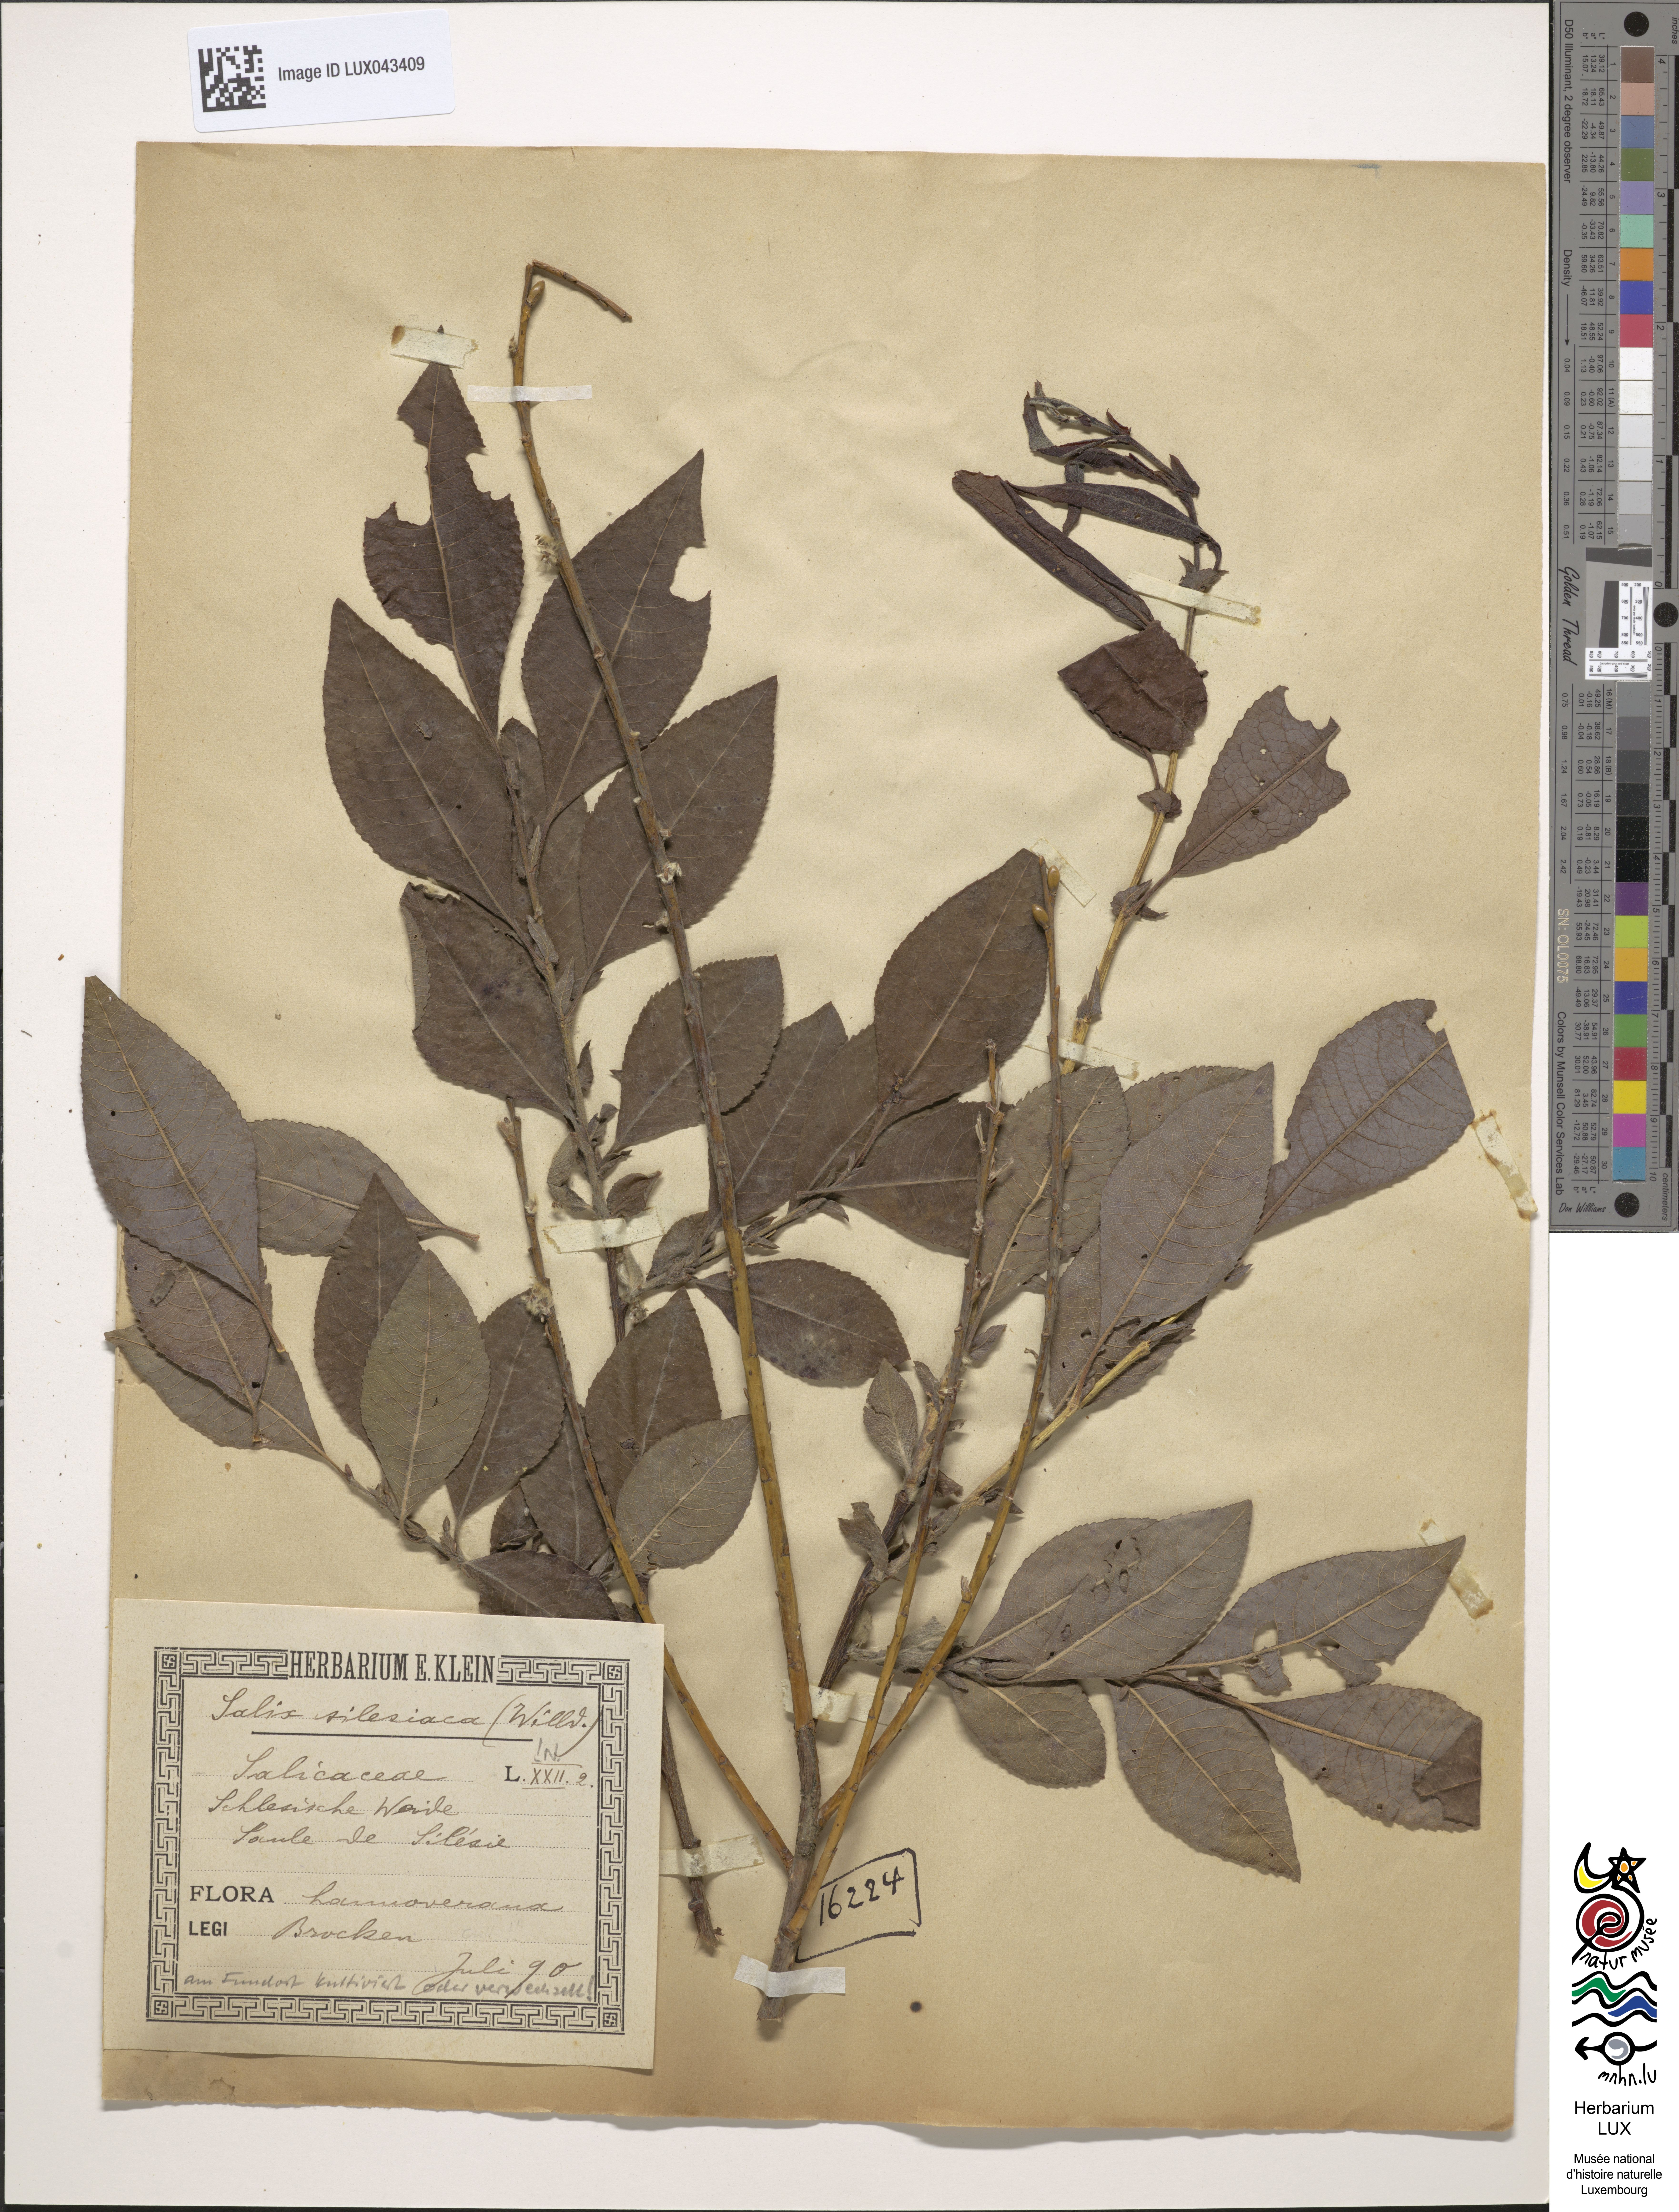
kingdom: Plantae
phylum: Tracheophyta
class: Magnoliopsida
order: Malpighiales
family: Salicaceae
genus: Salix
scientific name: Salix silesiaca
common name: Silesian willow
